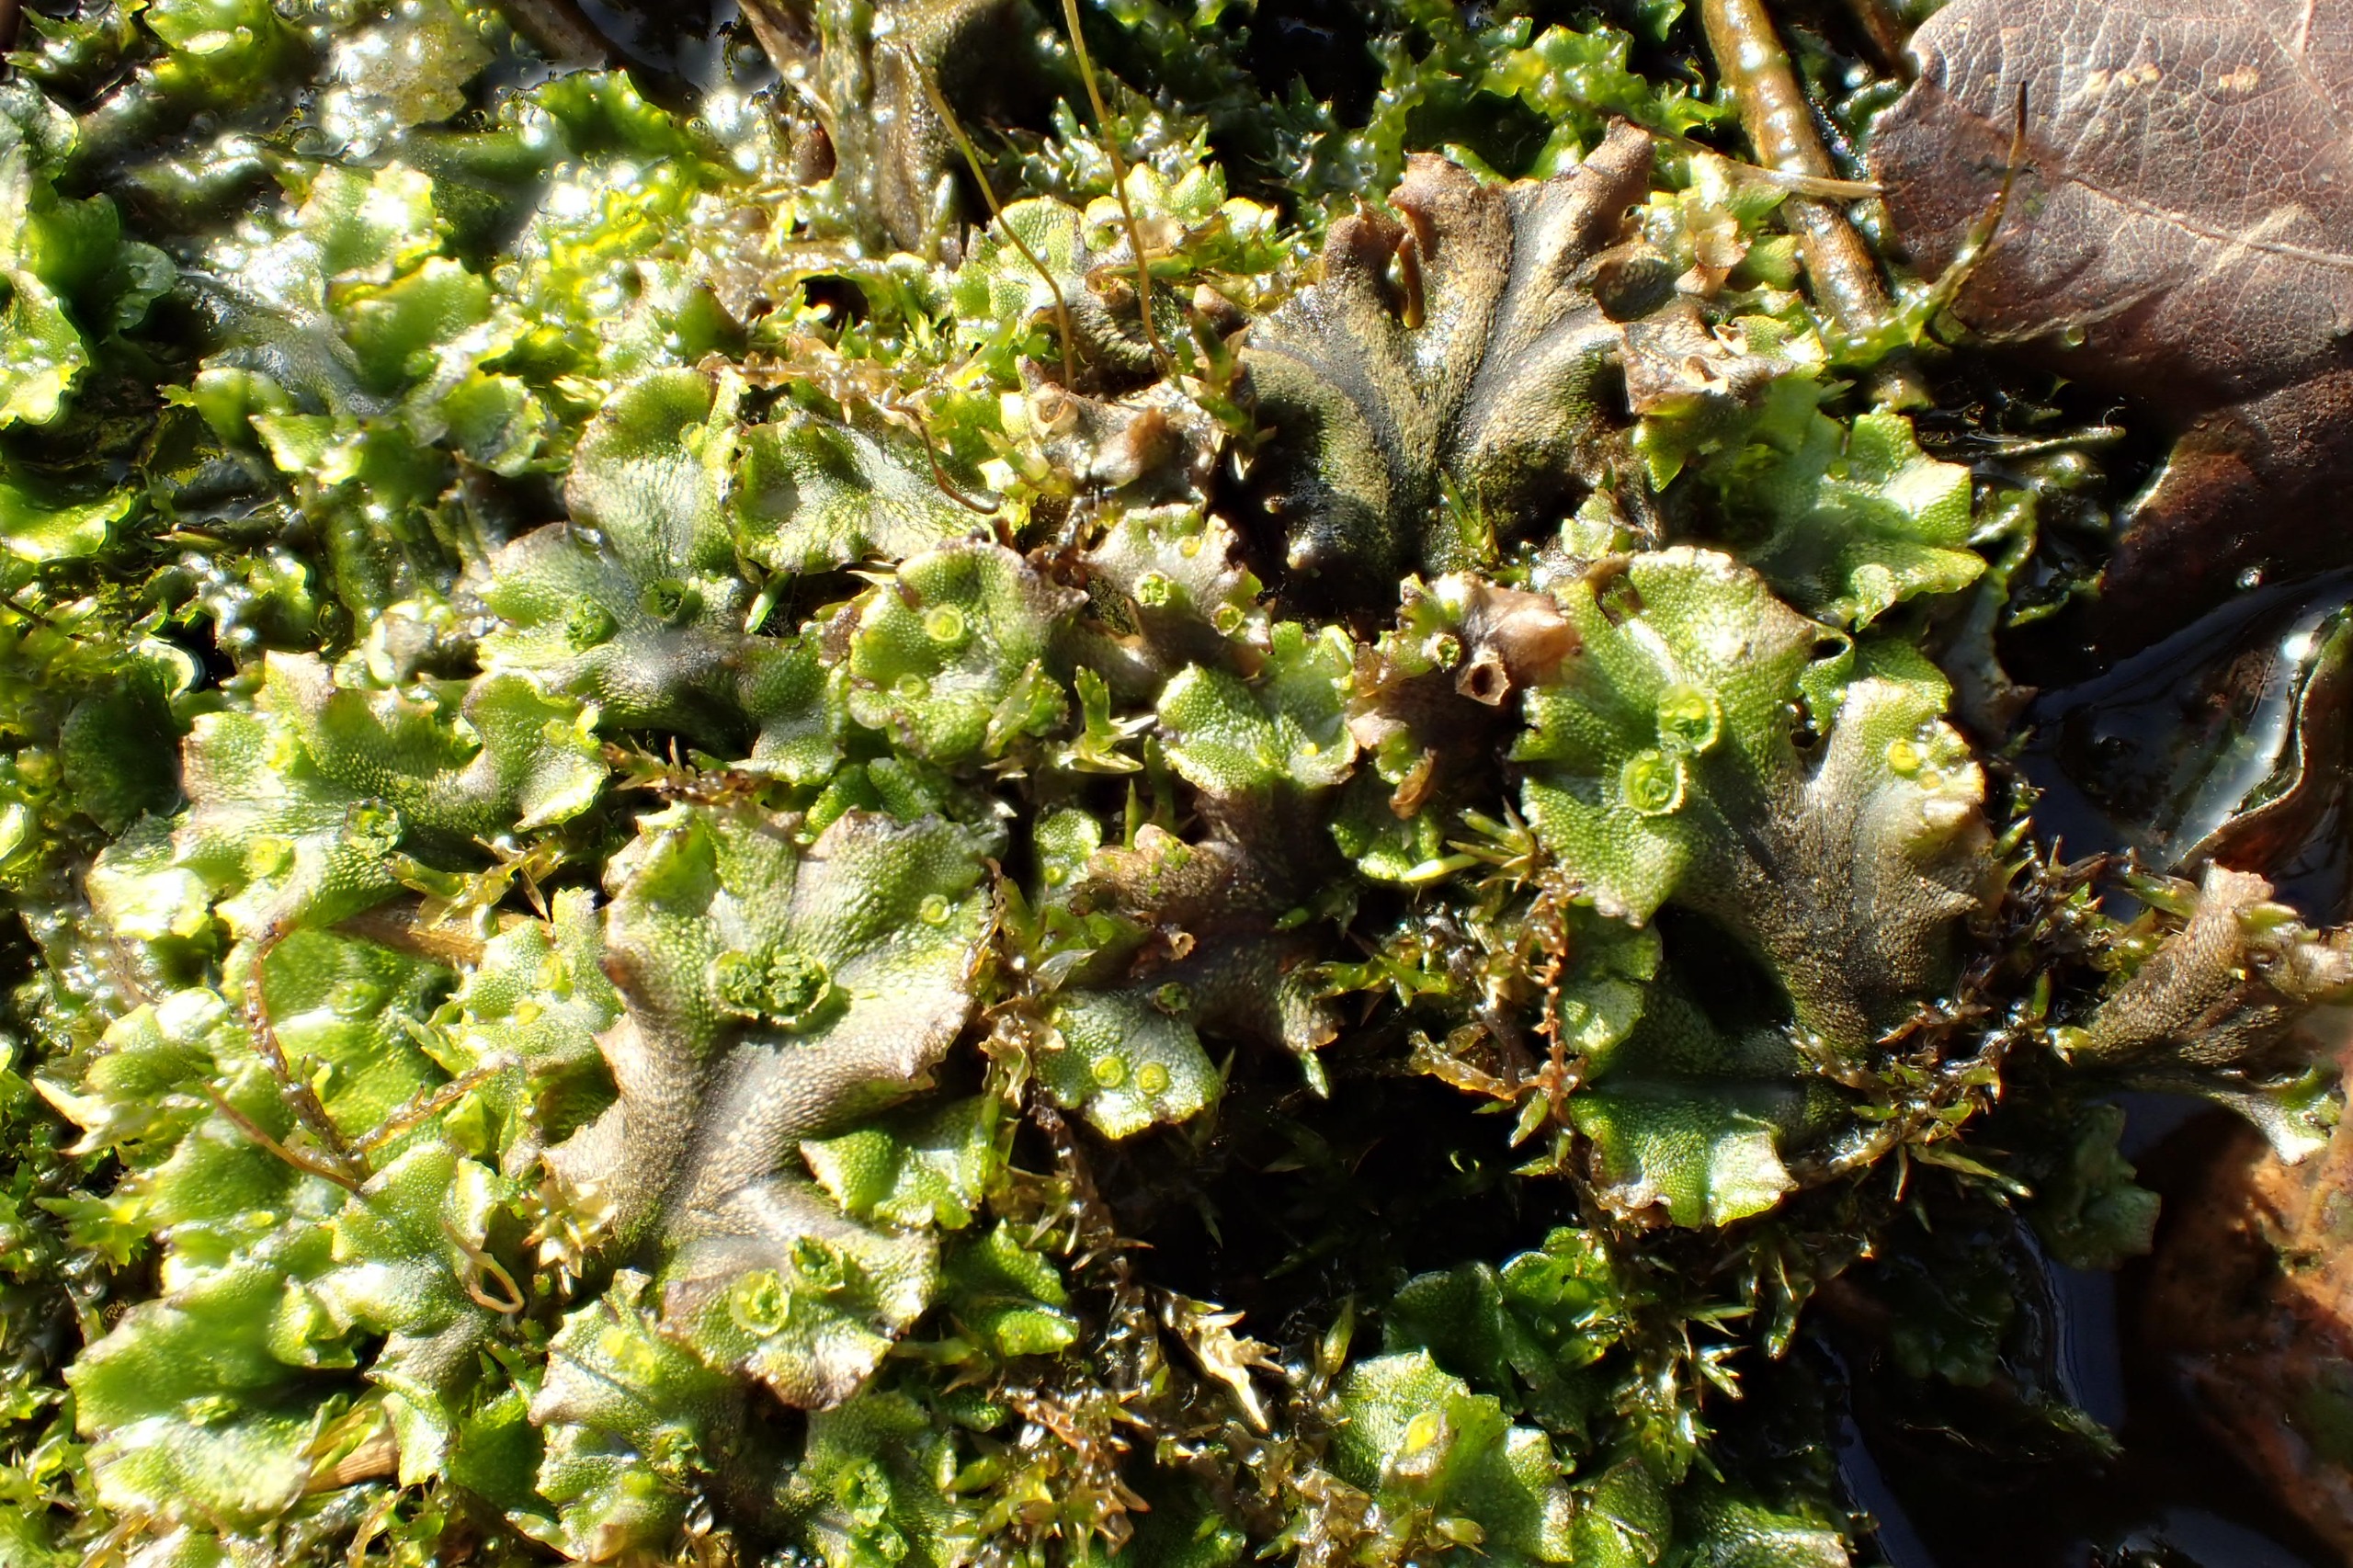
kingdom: Plantae
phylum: Marchantiophyta
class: Marchantiopsida
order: Marchantiales
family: Marchantiaceae
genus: Marchantia
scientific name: Marchantia polymorpha
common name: Mose-lungemos
